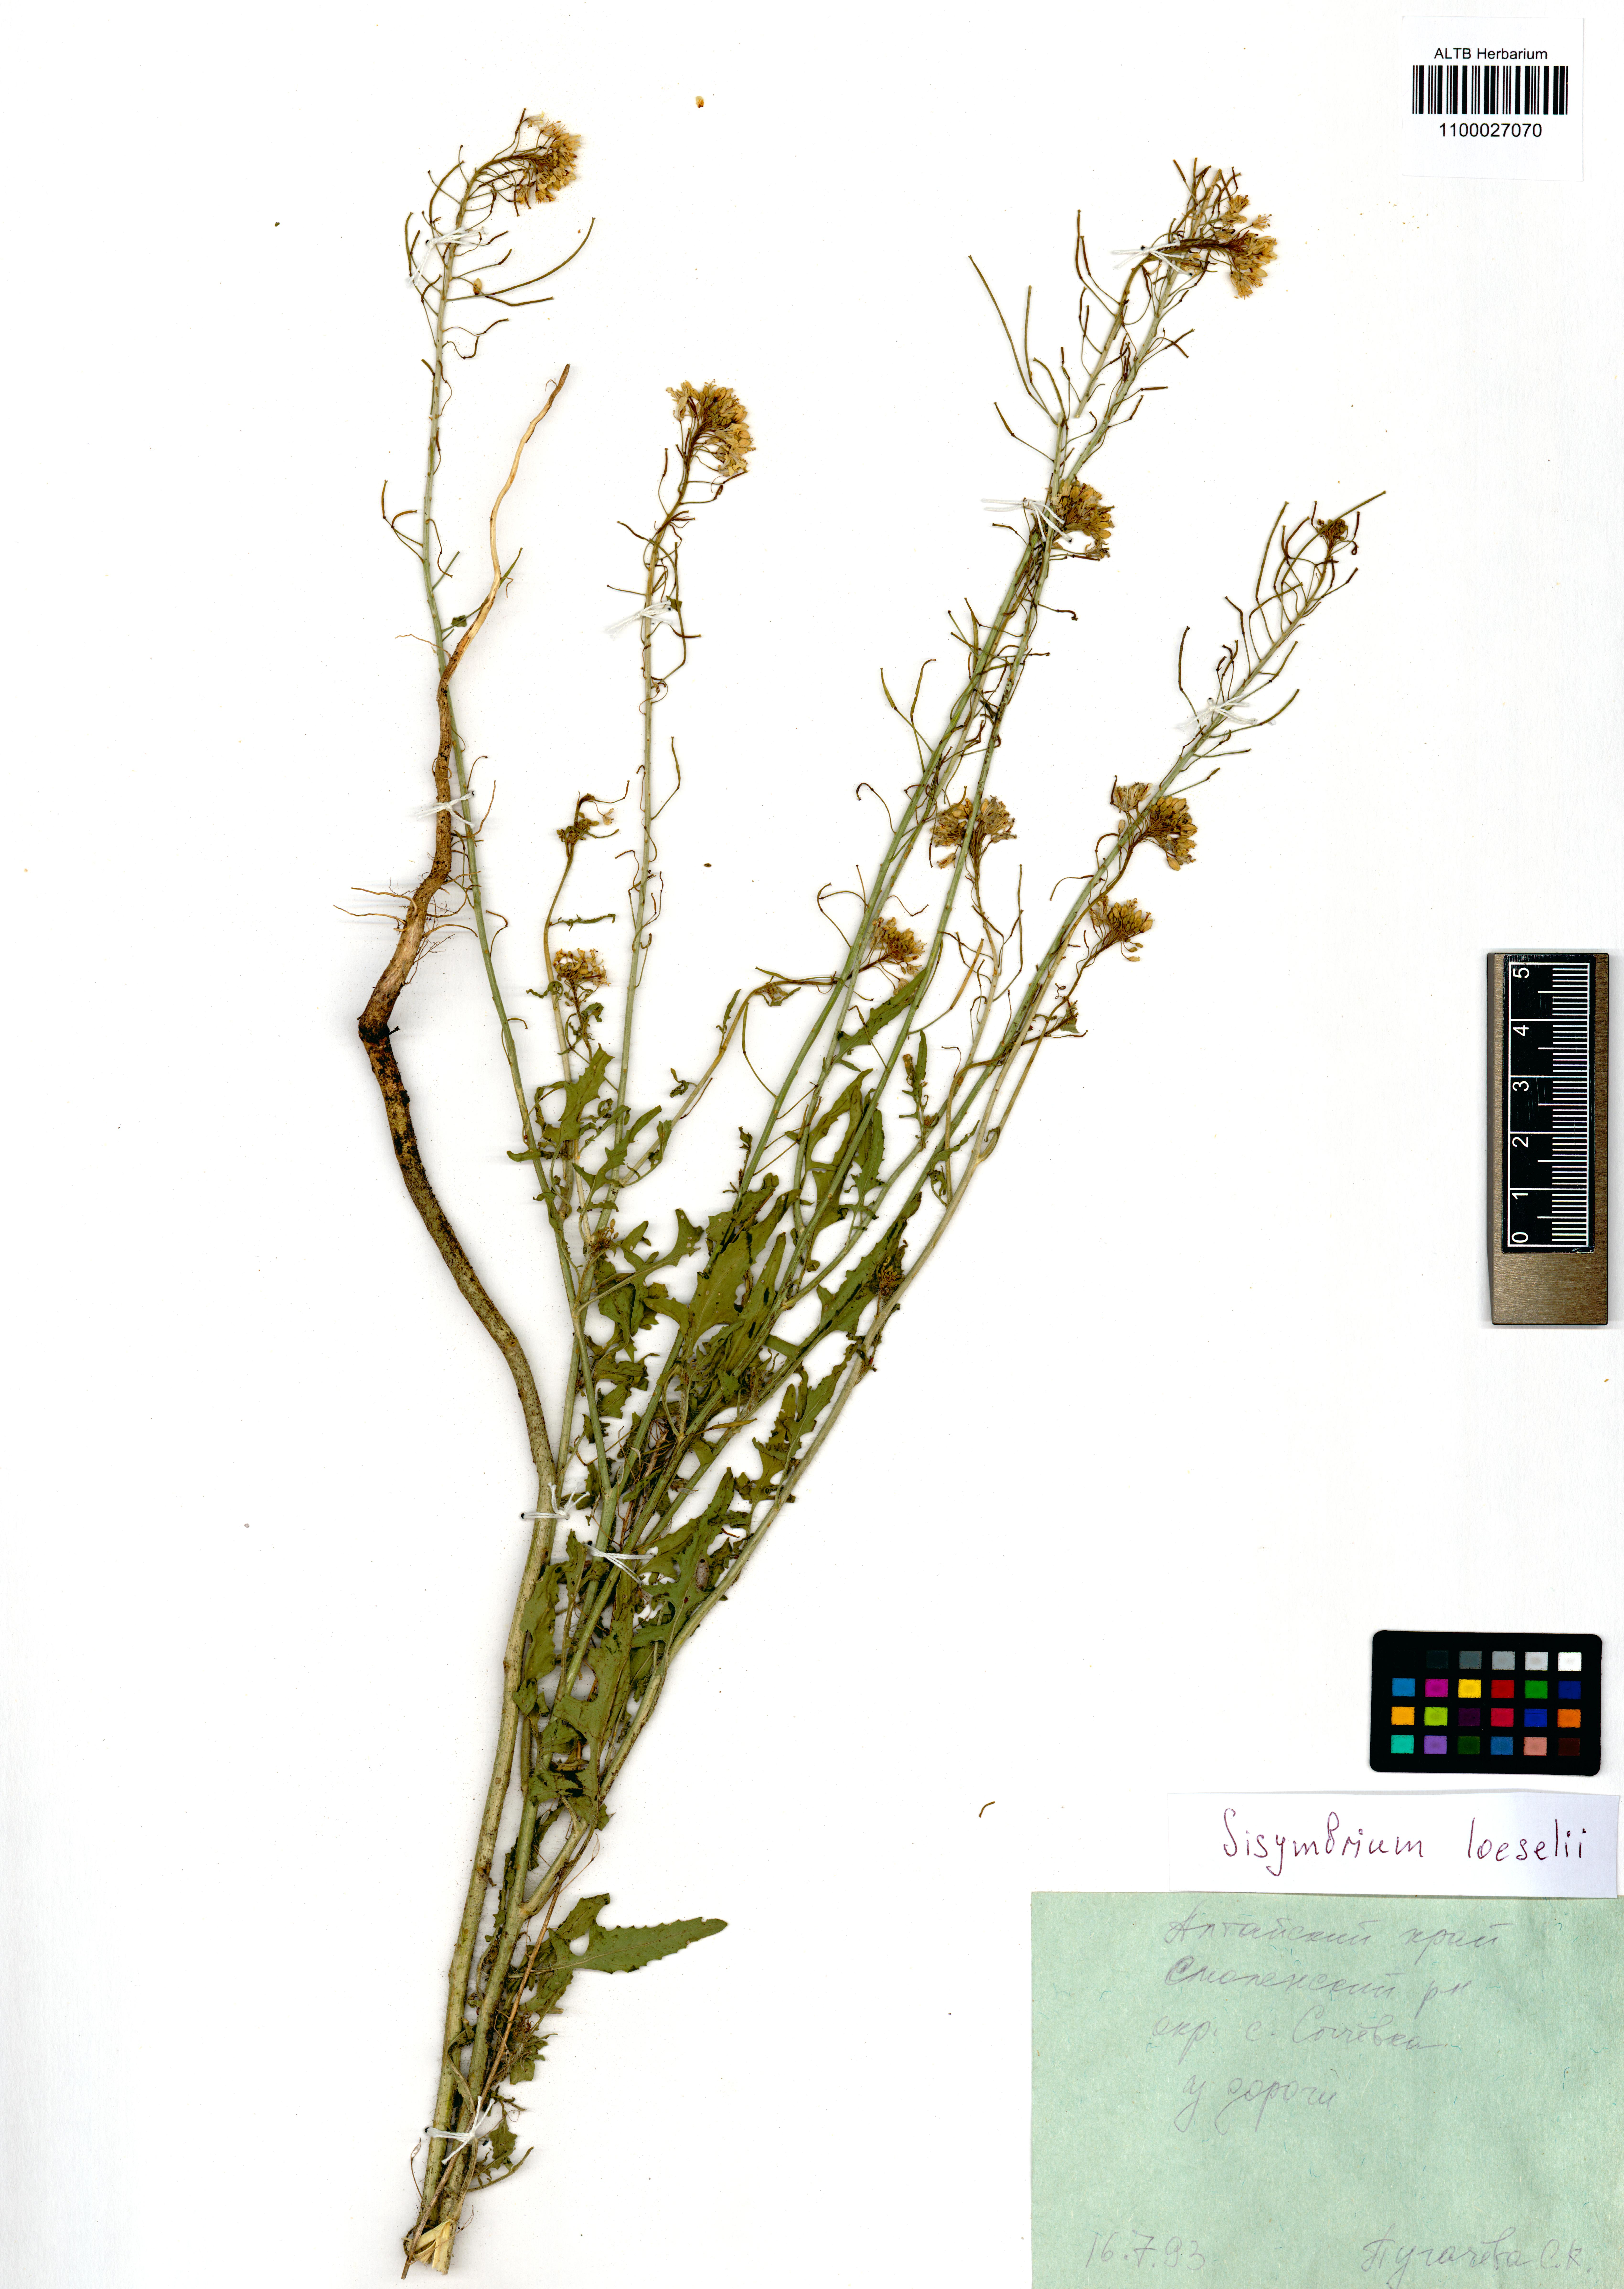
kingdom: Plantae
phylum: Tracheophyta
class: Magnoliopsida
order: Brassicales
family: Brassicaceae
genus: Sisymbrium
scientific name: Sisymbrium loeselii
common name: False london-rocket
